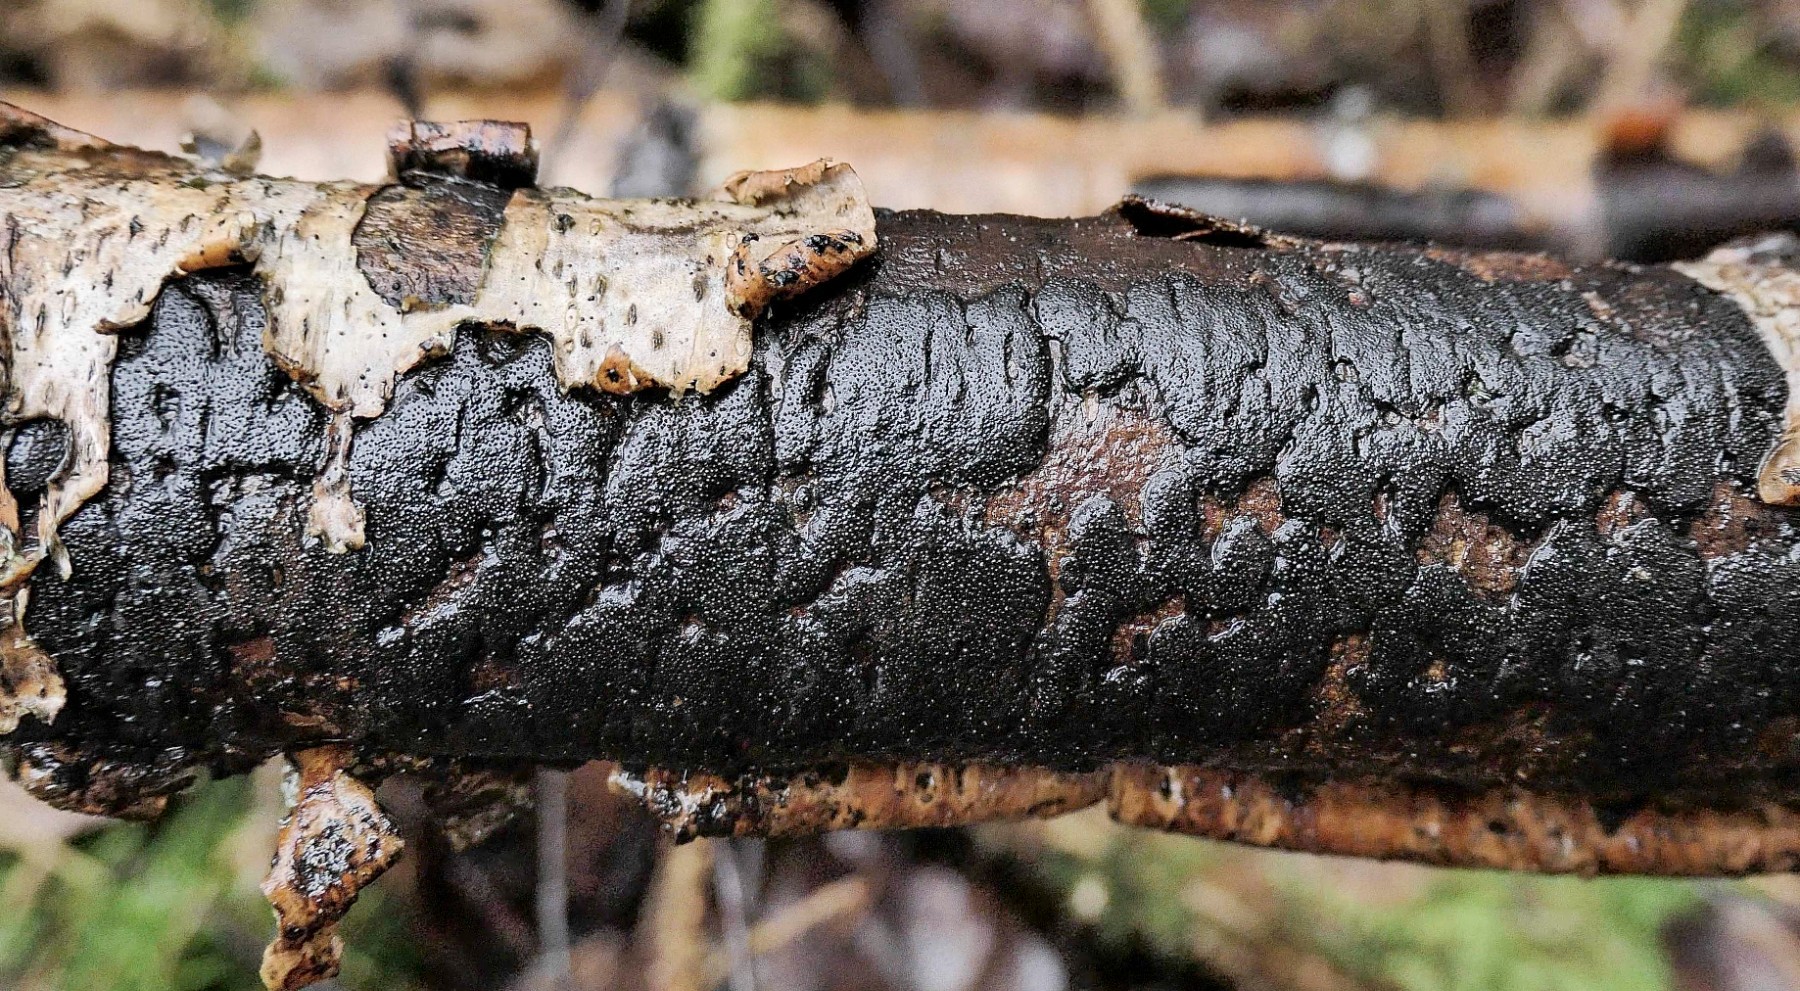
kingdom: Fungi
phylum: Ascomycota
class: Sordariomycetes
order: Xylariales
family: Diatrypaceae
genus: Diatrype
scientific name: Diatrype
